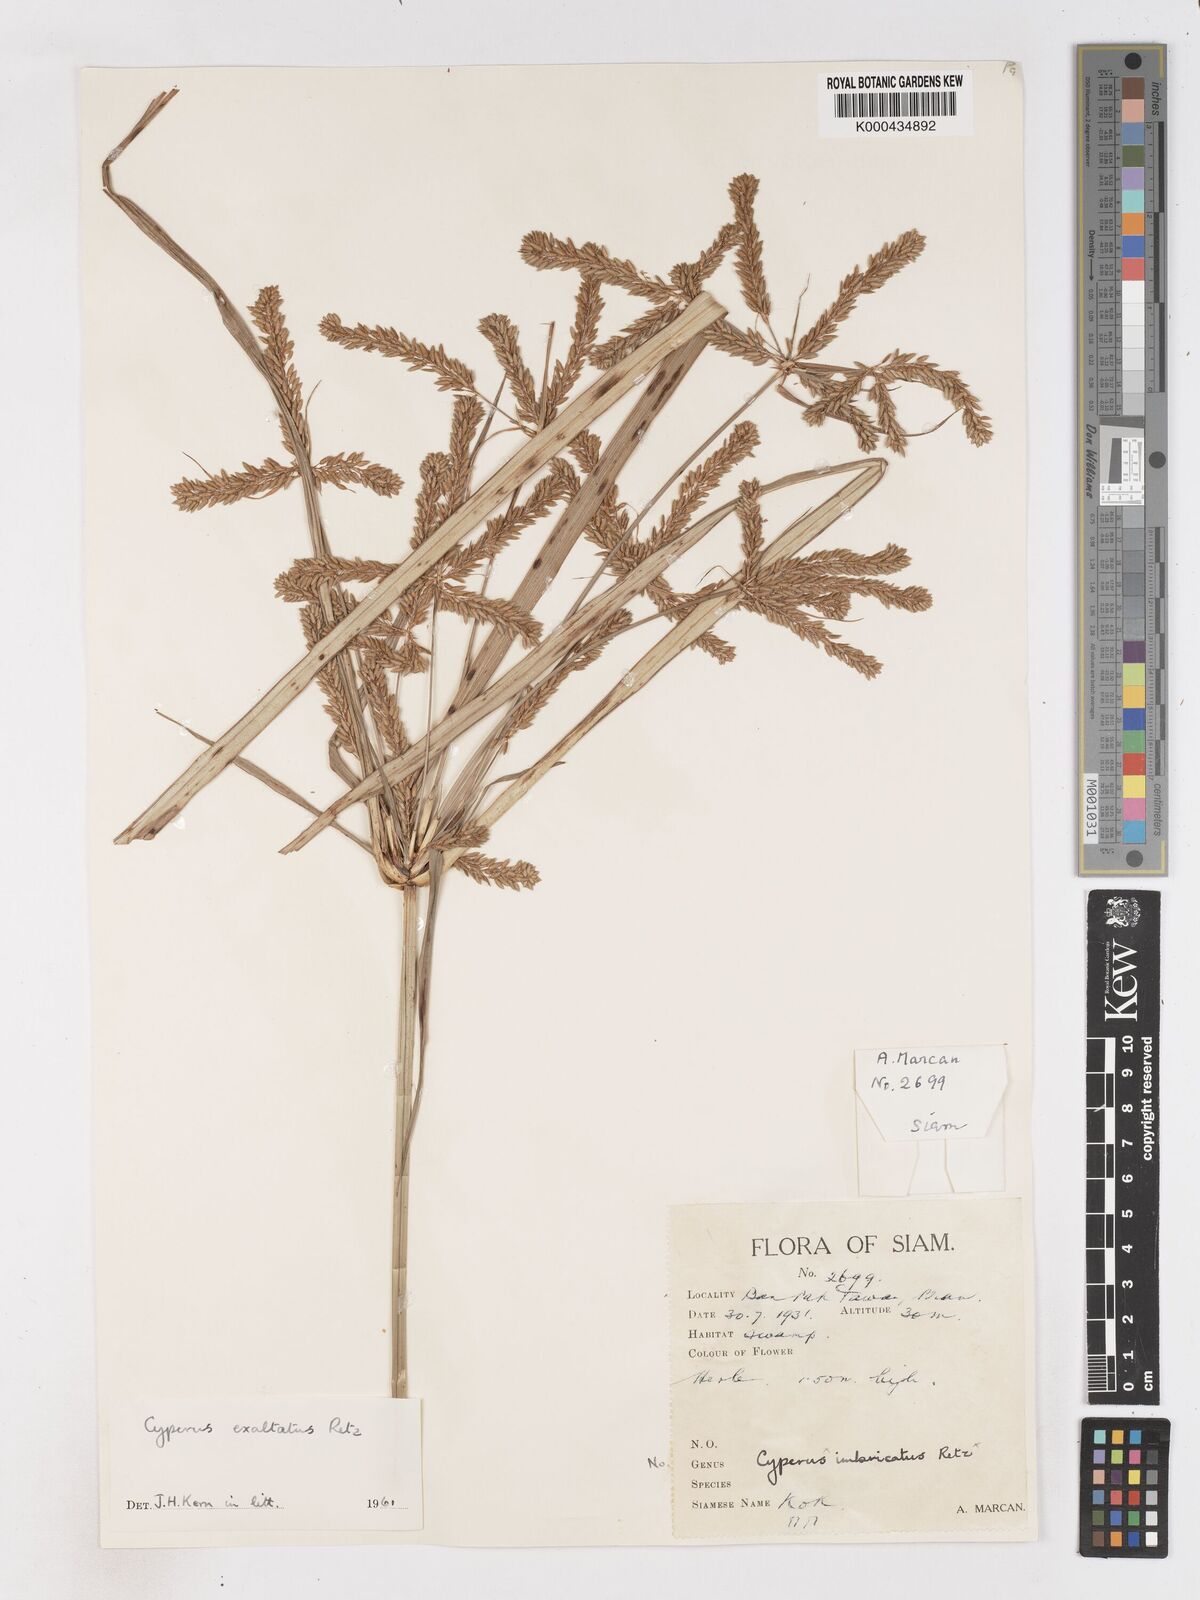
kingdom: Plantae
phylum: Tracheophyta
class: Liliopsida
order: Poales
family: Cyperaceae
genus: Cyperus
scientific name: Cyperus imbricatus
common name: Shingle flatsedge
